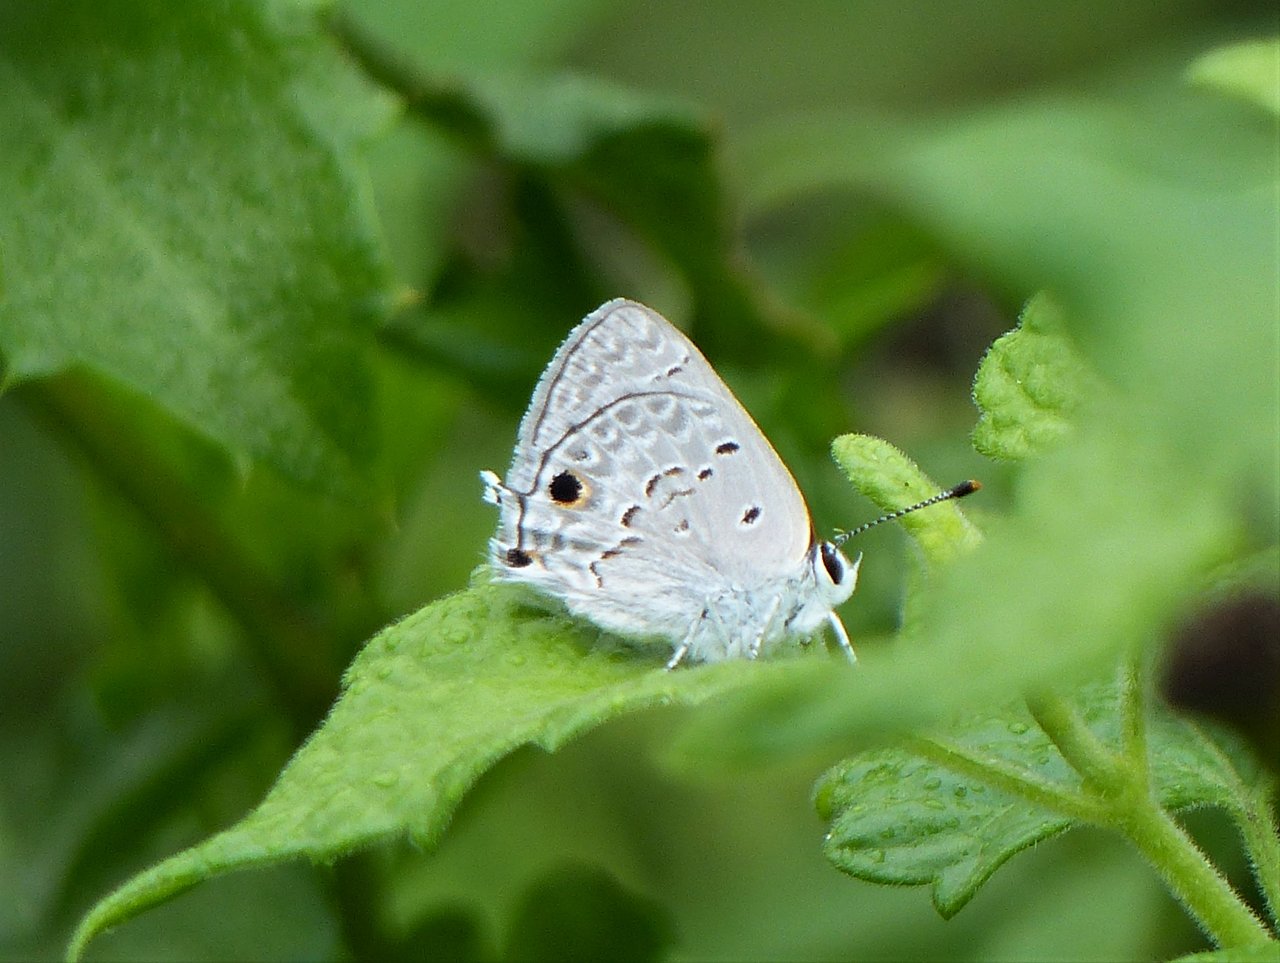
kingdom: Animalia
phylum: Arthropoda
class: Insecta
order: Lepidoptera
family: Lycaenidae
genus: Callicista
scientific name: Callicista columella
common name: Mallow Scrub-Hairstreak
